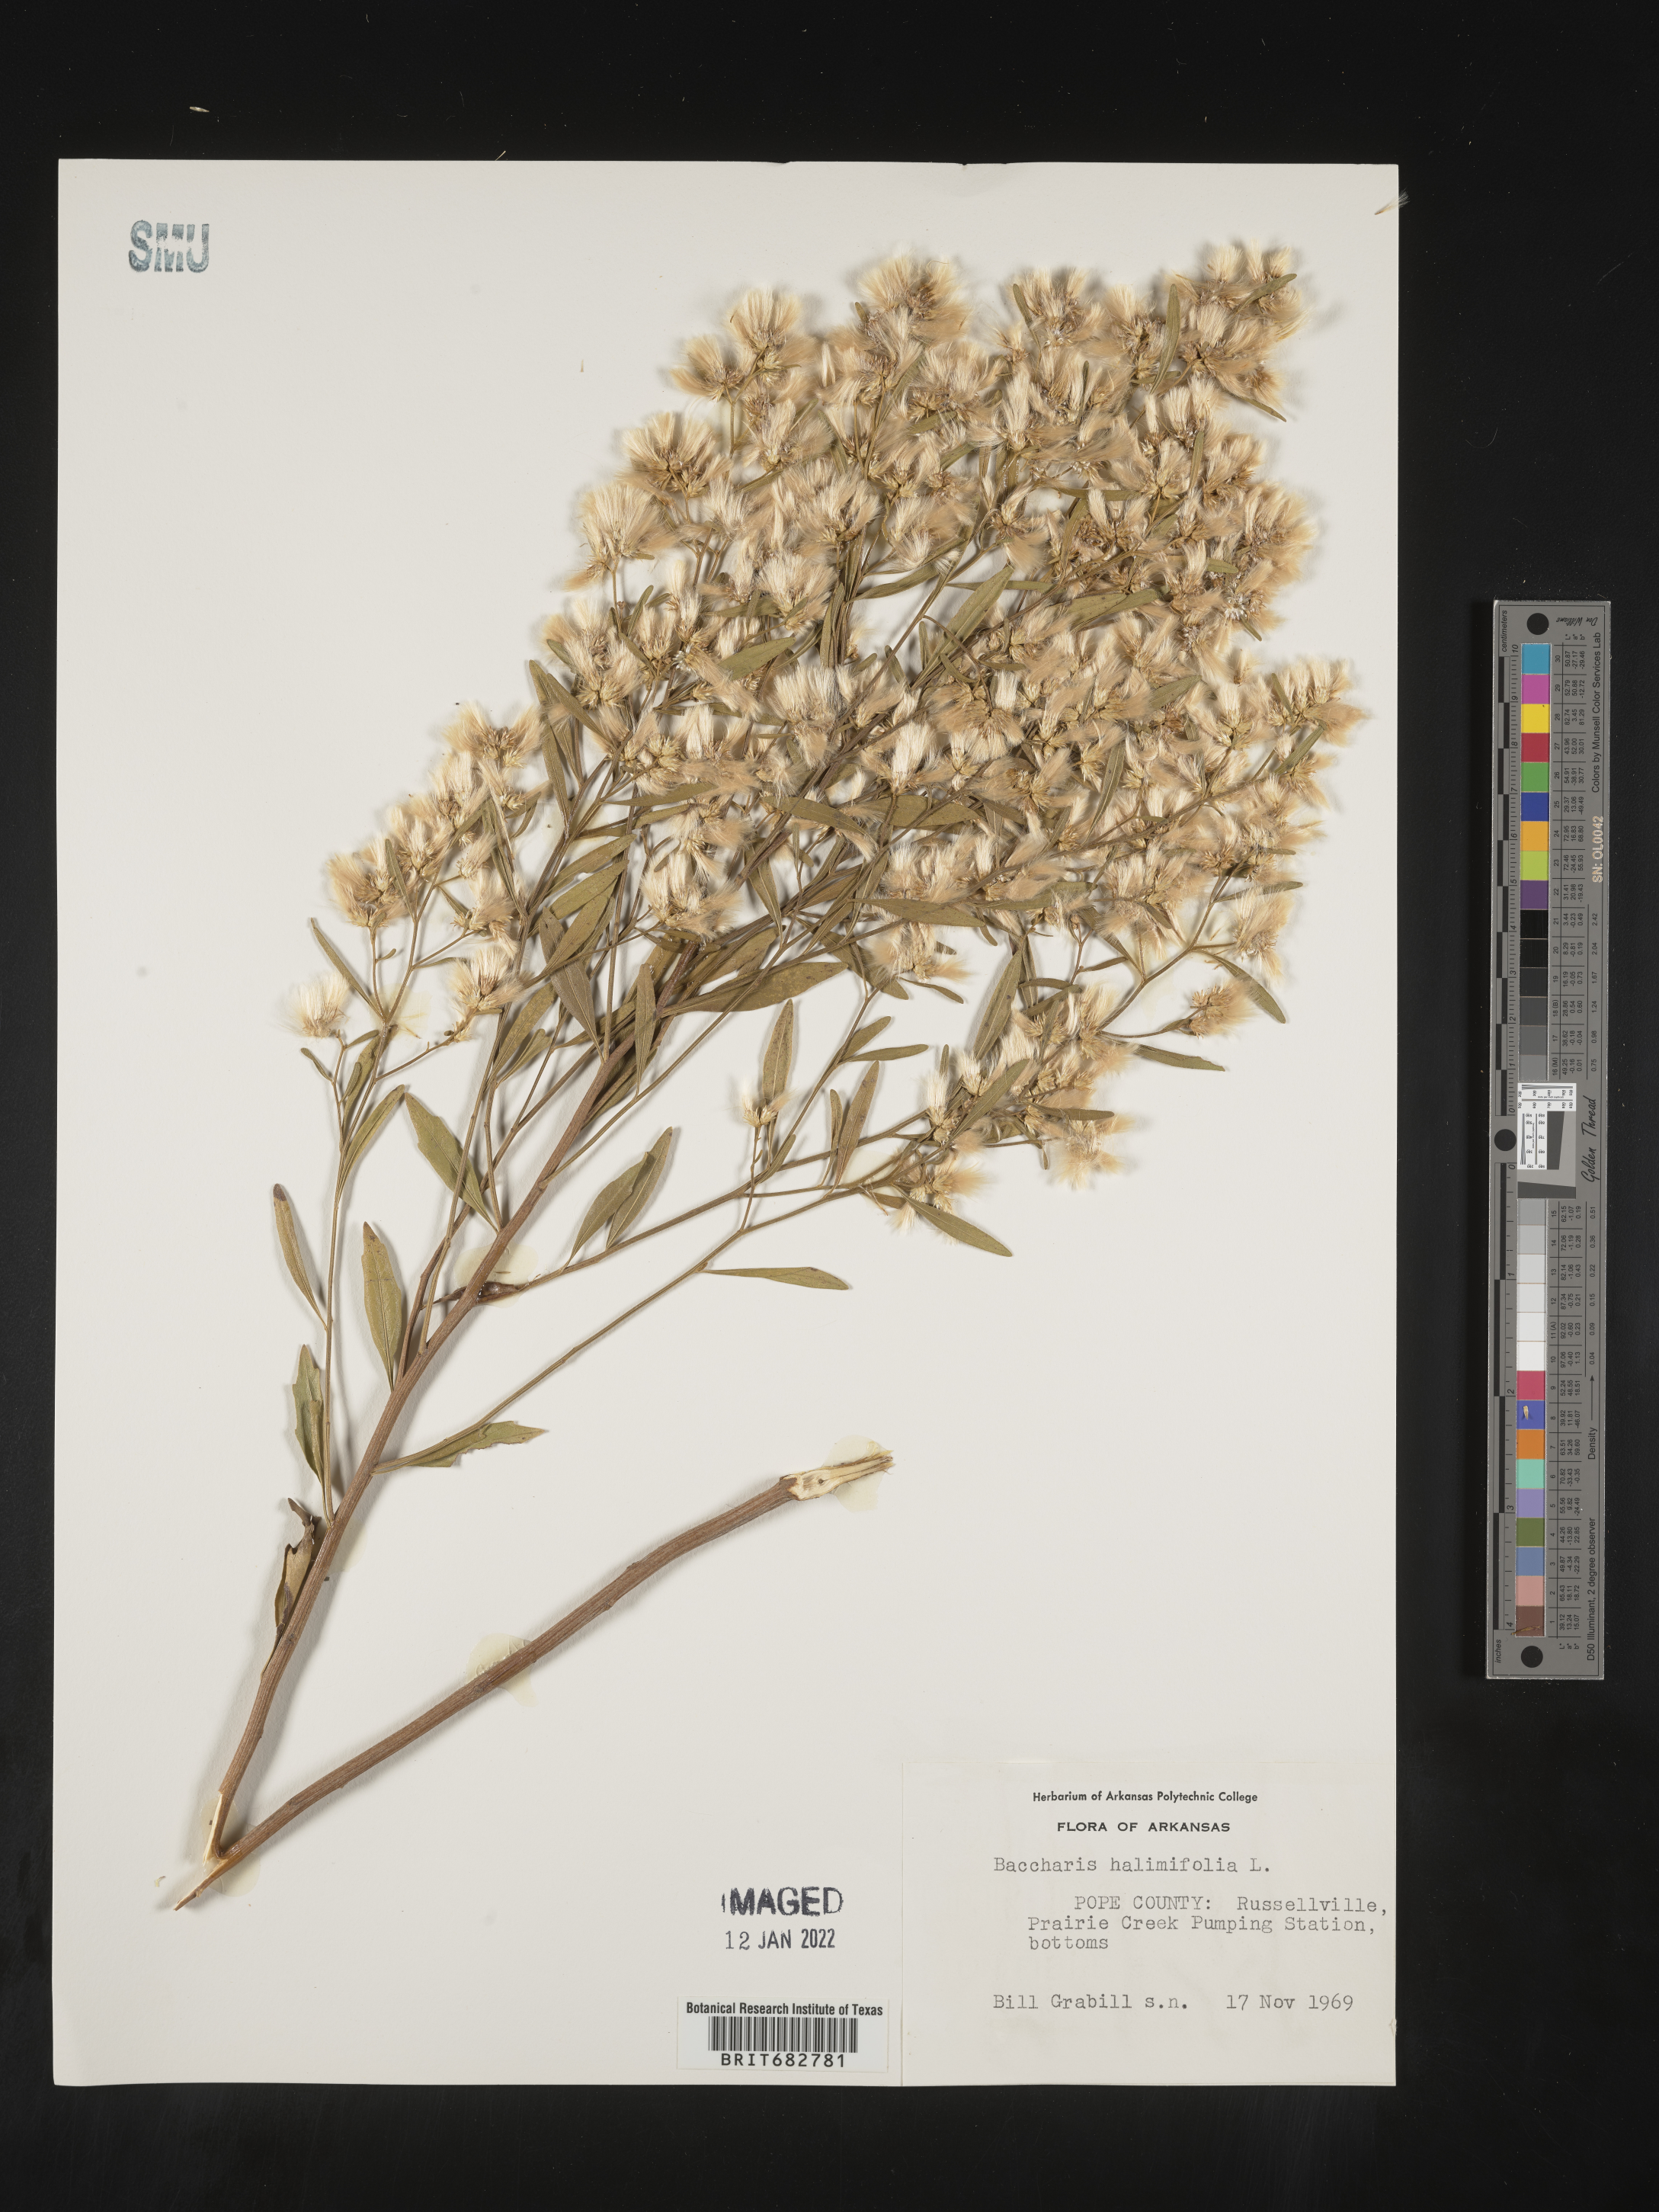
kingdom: Plantae
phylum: Tracheophyta
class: Magnoliopsida
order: Asterales
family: Asteraceae
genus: Nidorella
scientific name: Nidorella ivifolia
